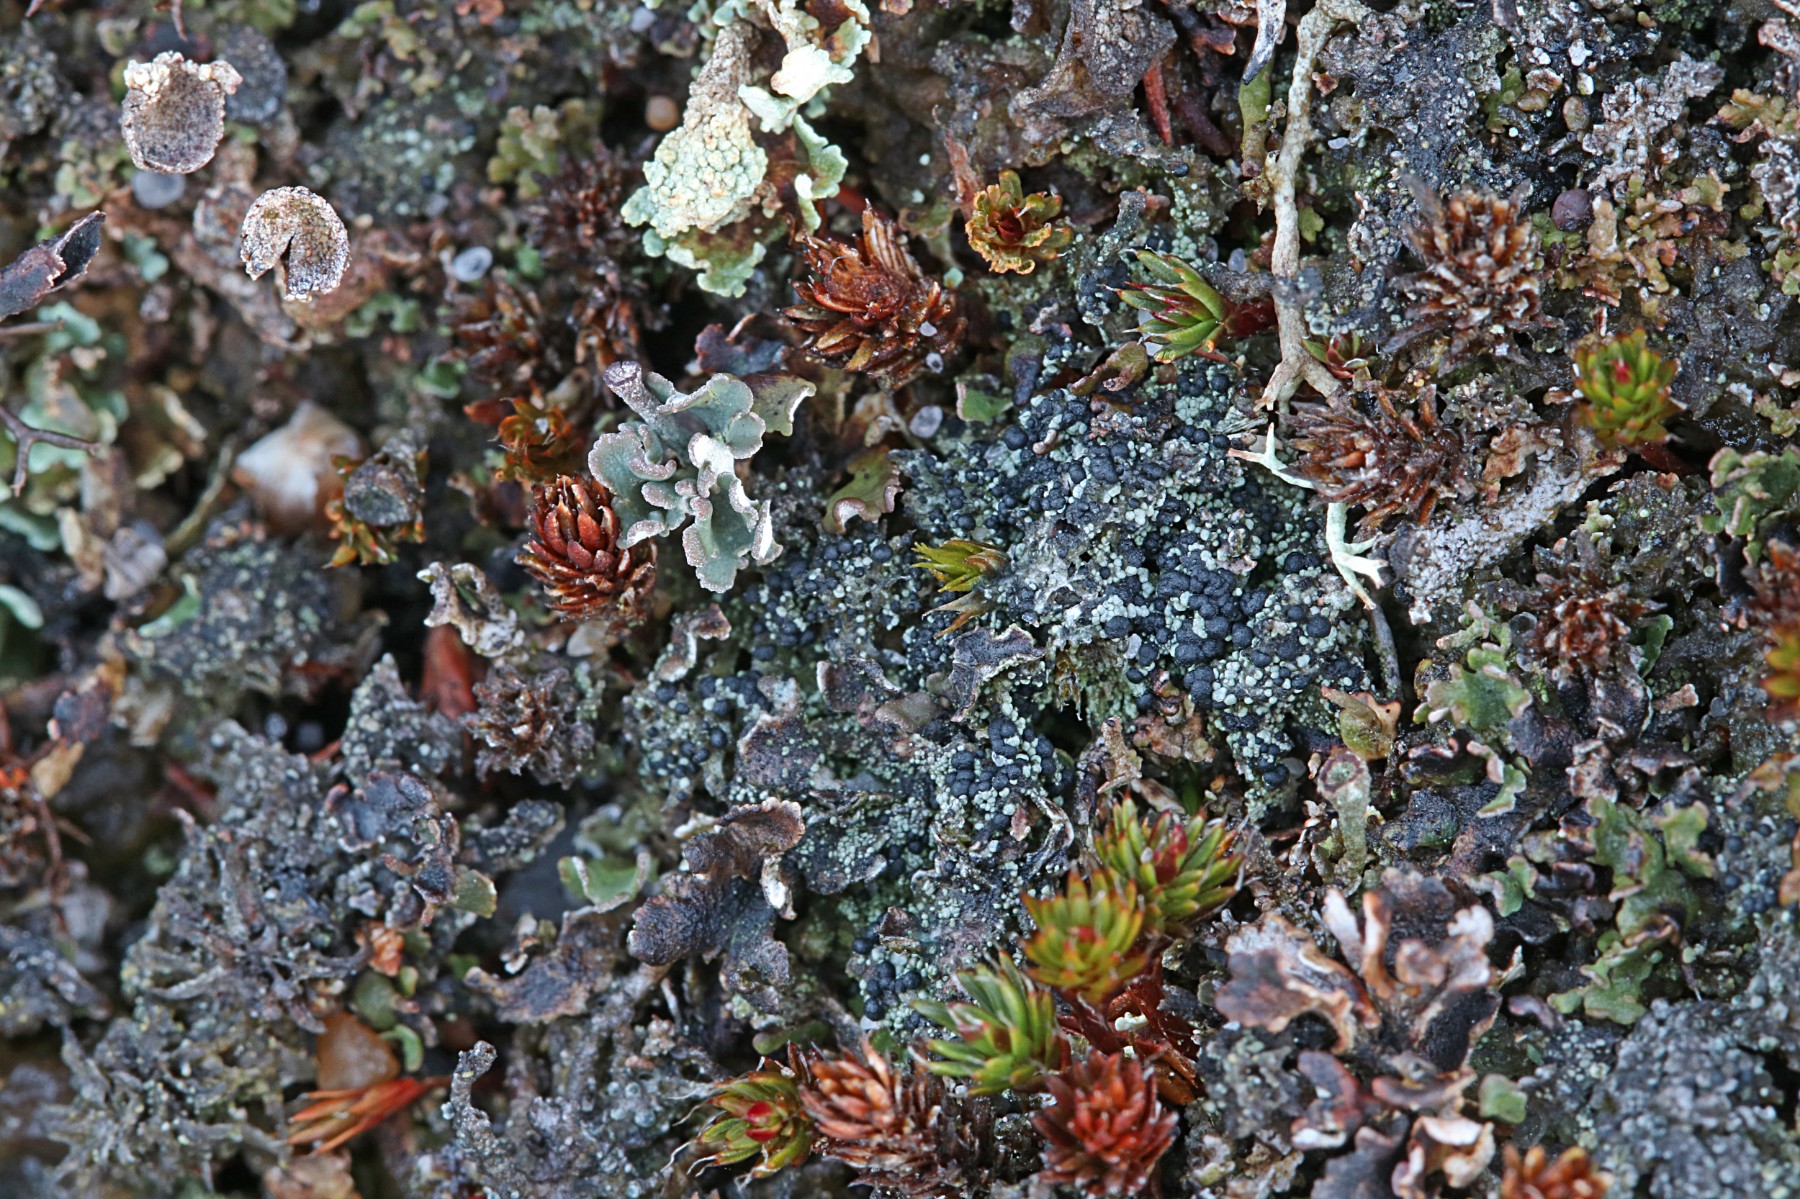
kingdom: Fungi
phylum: Ascomycota
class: Lecanoromycetes
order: Lecanorales
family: Byssolomataceae
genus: Micarea
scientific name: Micarea lignaria
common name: tørve-knaplav
